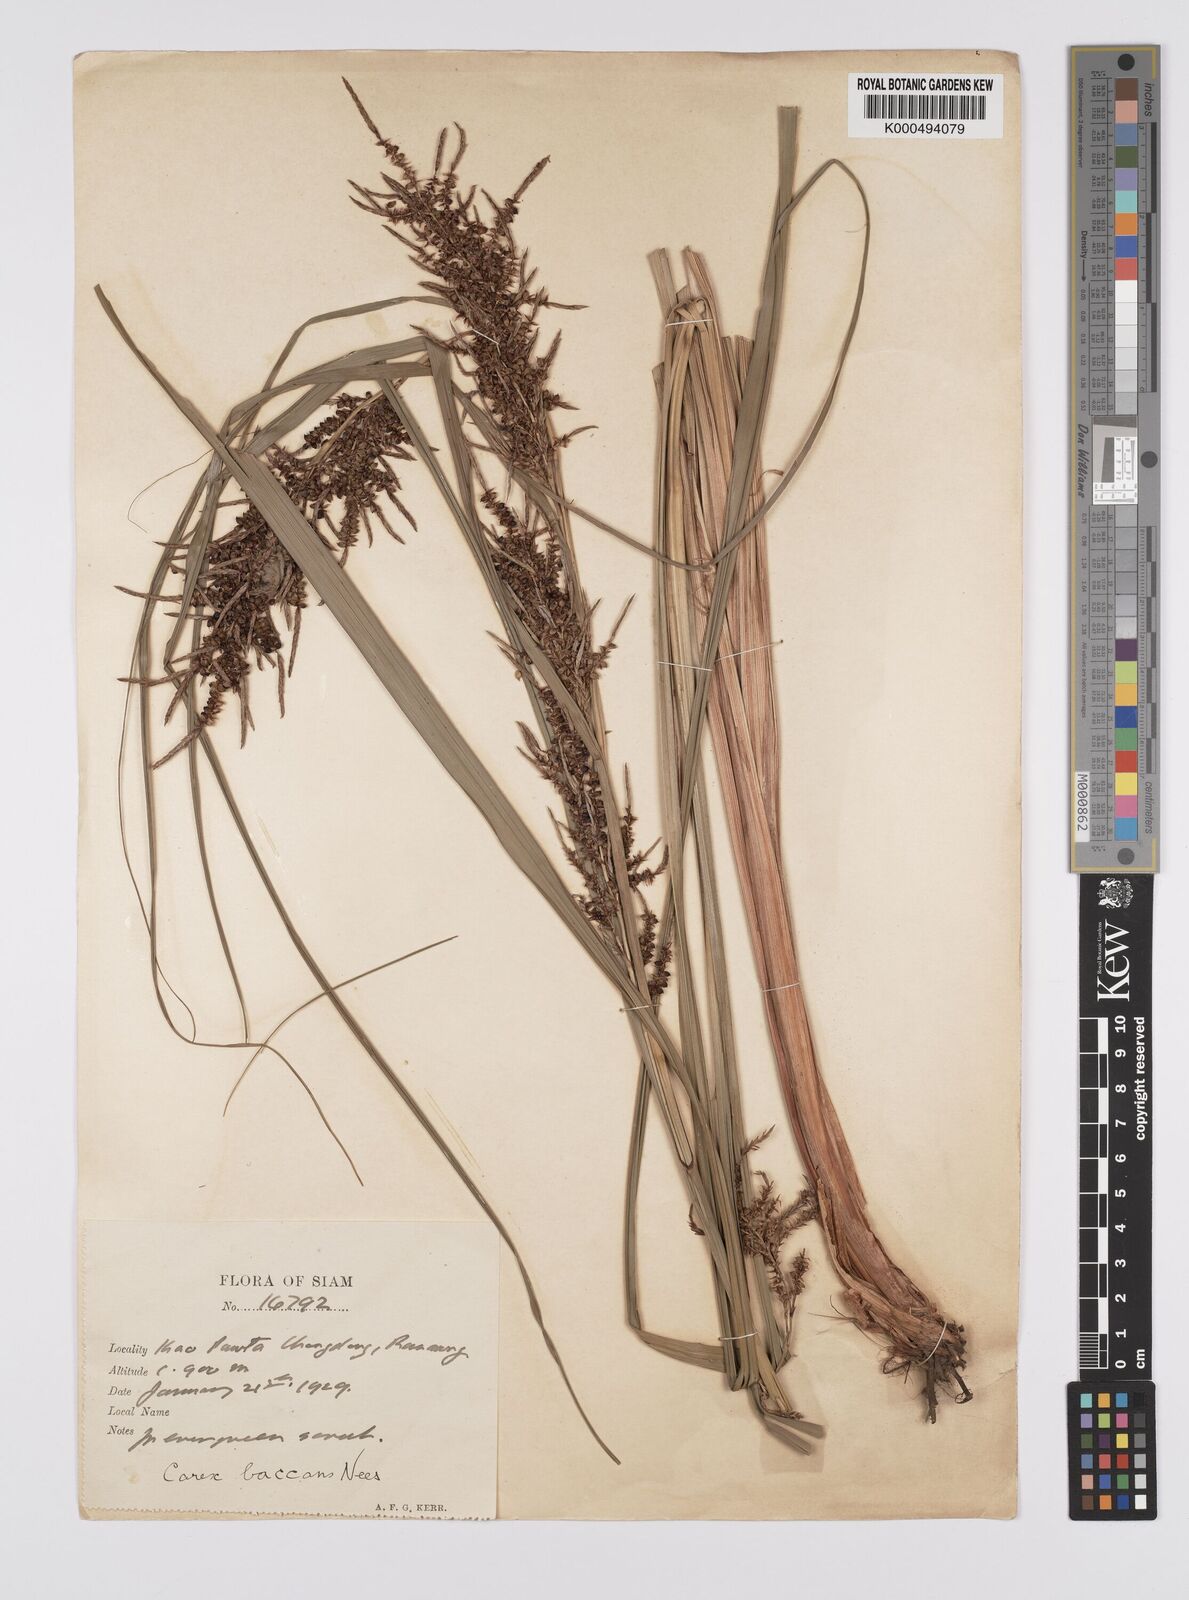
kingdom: Plantae
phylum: Tracheophyta
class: Liliopsida
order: Poales
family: Cyperaceae
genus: Carex
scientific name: Carex baccans
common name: Crimson seeded sedge
